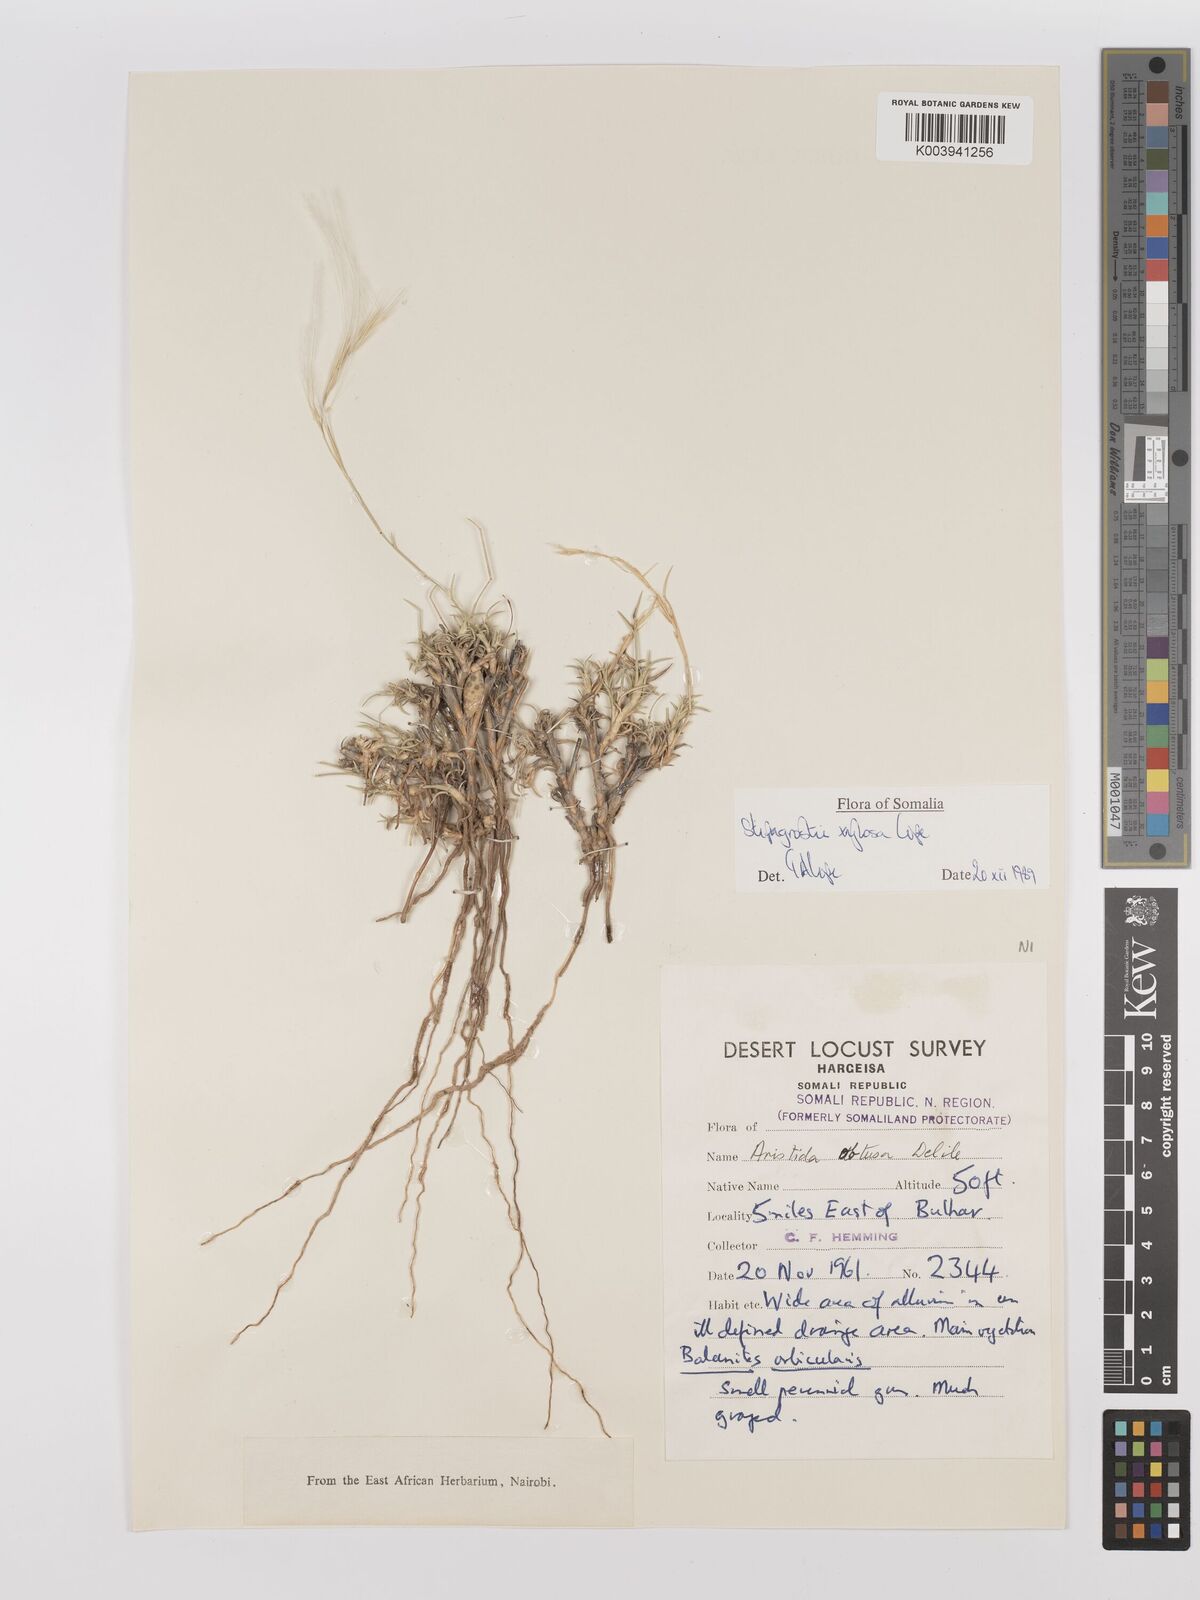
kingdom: Plantae
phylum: Tracheophyta
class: Liliopsida
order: Poales
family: Poaceae
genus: Stipagrostis
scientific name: Stipagrostis xylosa
